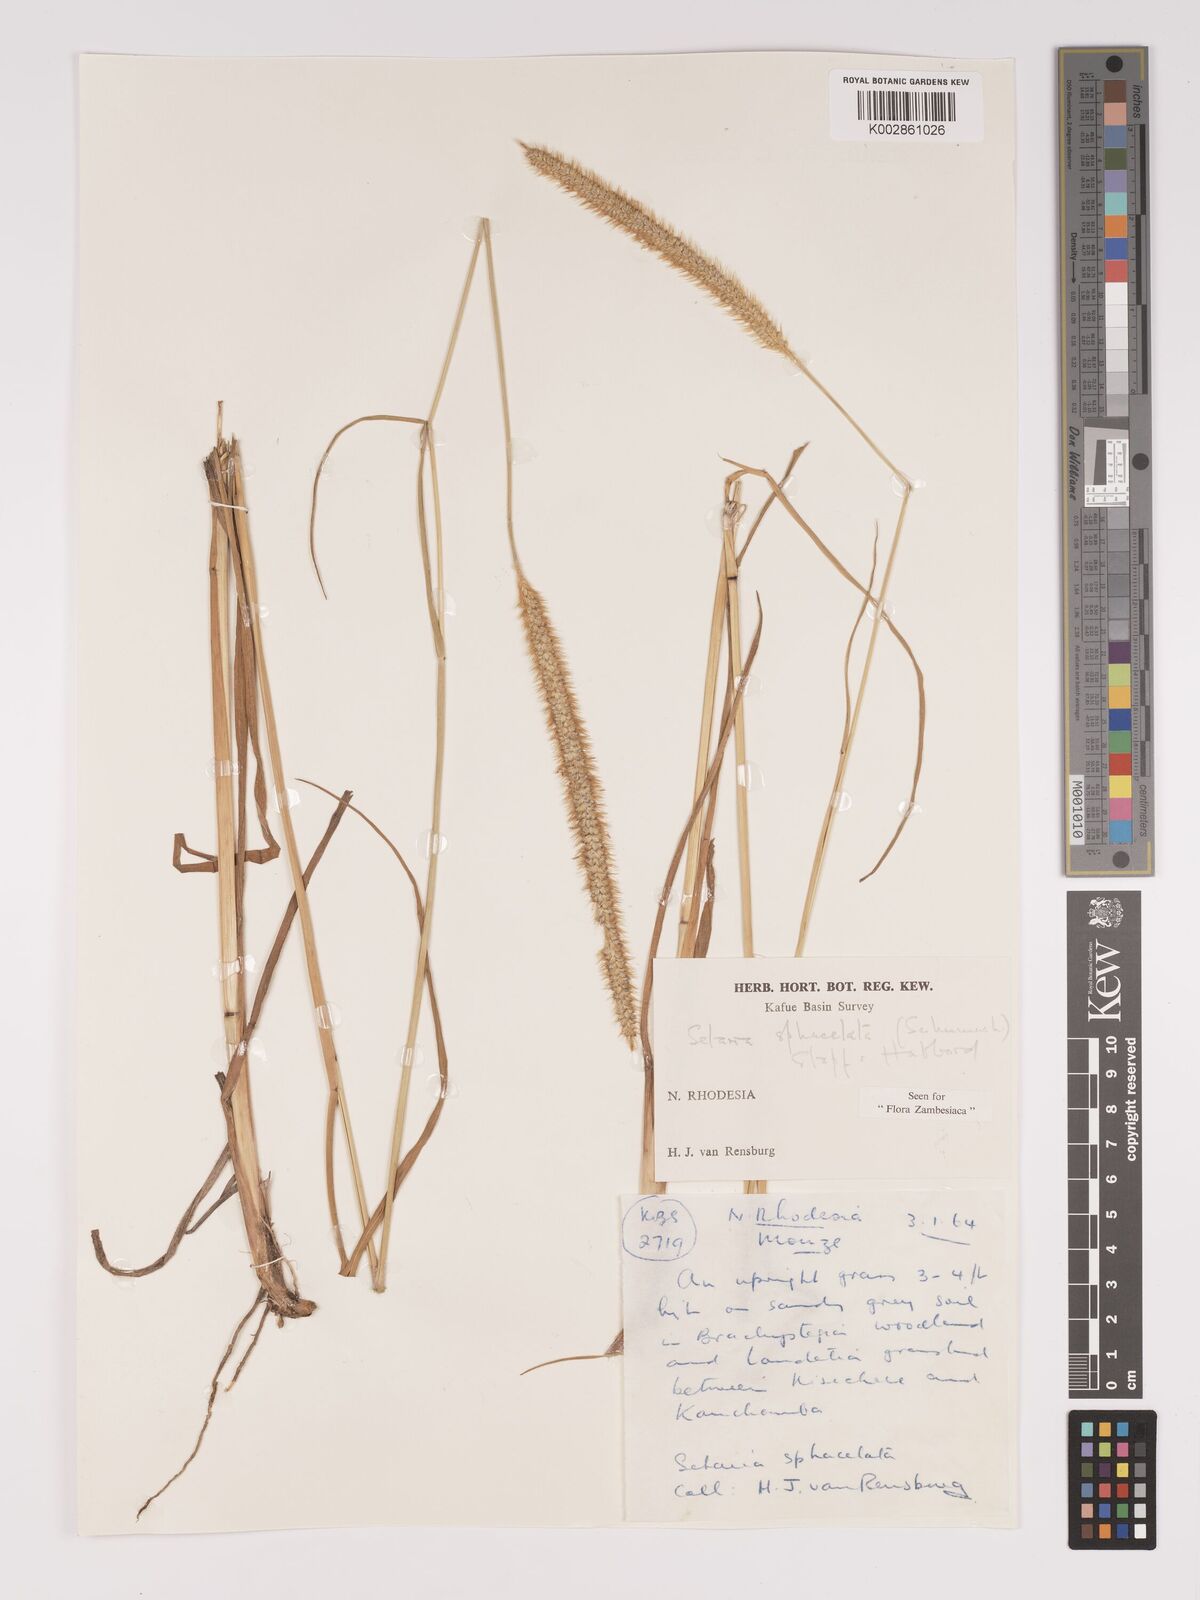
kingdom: Plantae
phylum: Tracheophyta
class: Liliopsida
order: Poales
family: Poaceae
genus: Setaria
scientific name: Setaria sphacelata
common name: African bristlegrass
